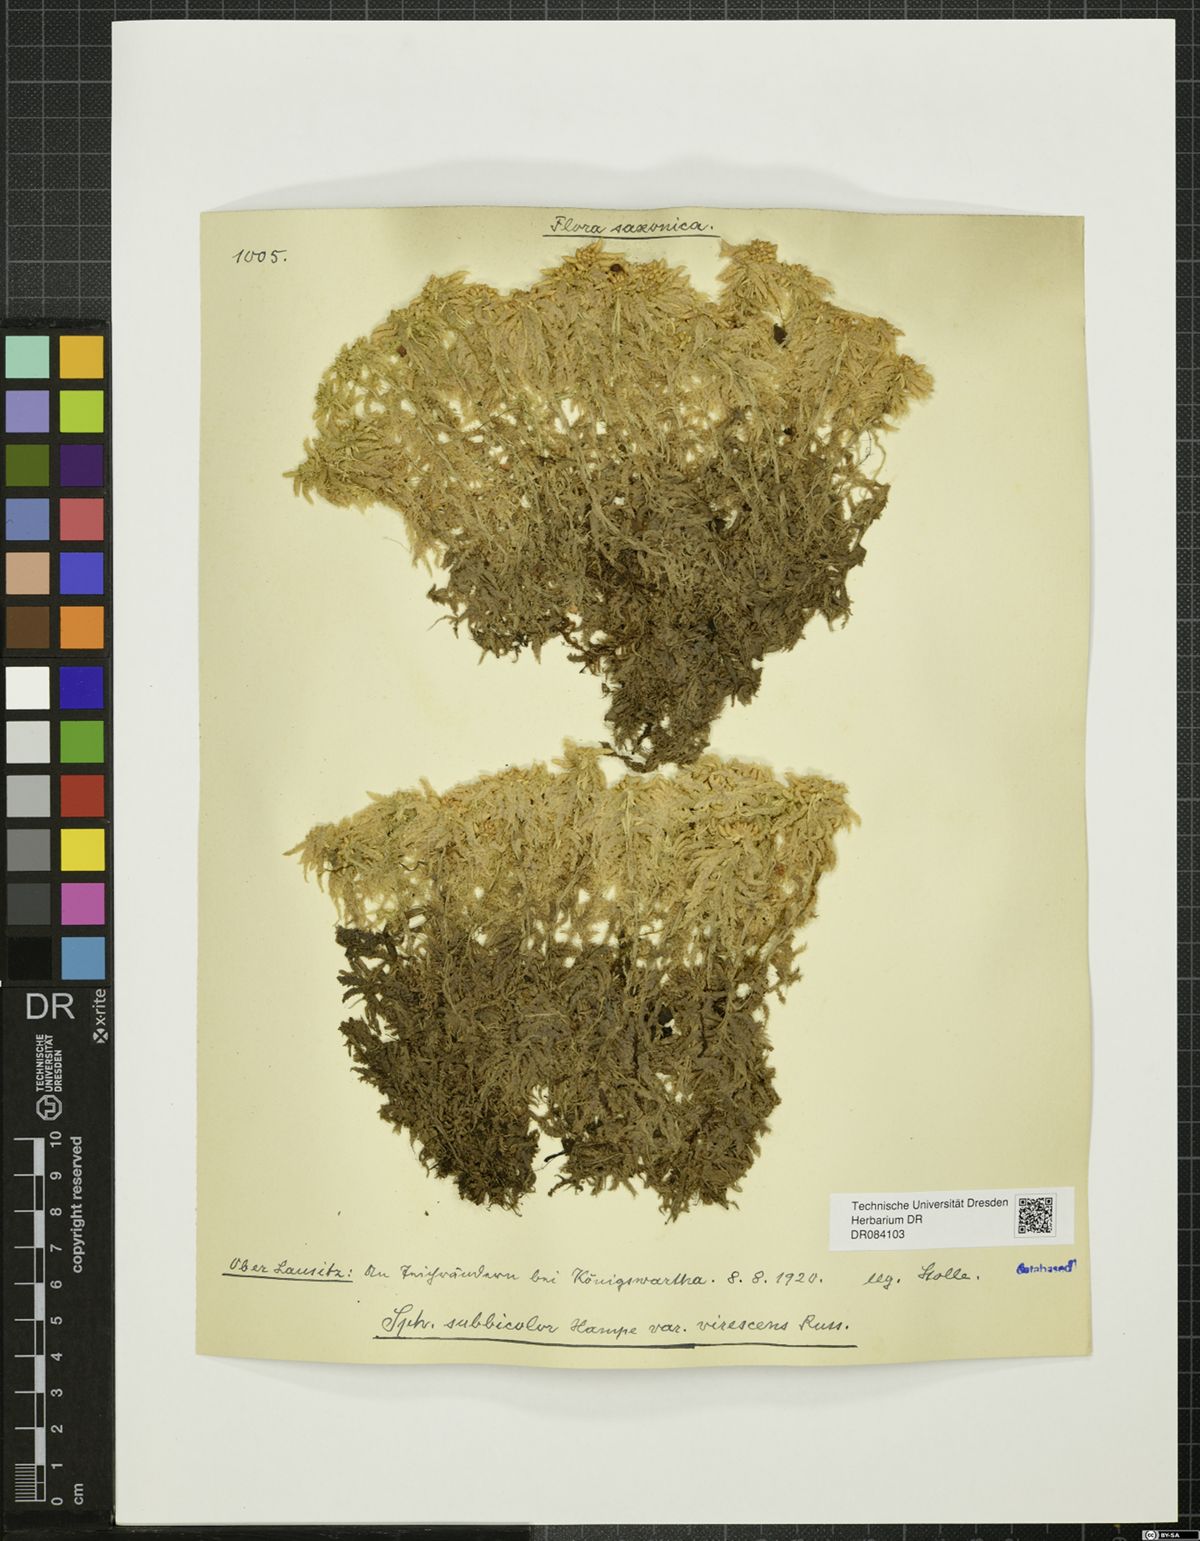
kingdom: Plantae
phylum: Bryophyta
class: Sphagnopsida
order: Sphagnales
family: Sphagnaceae
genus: Sphagnum
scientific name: Sphagnum
